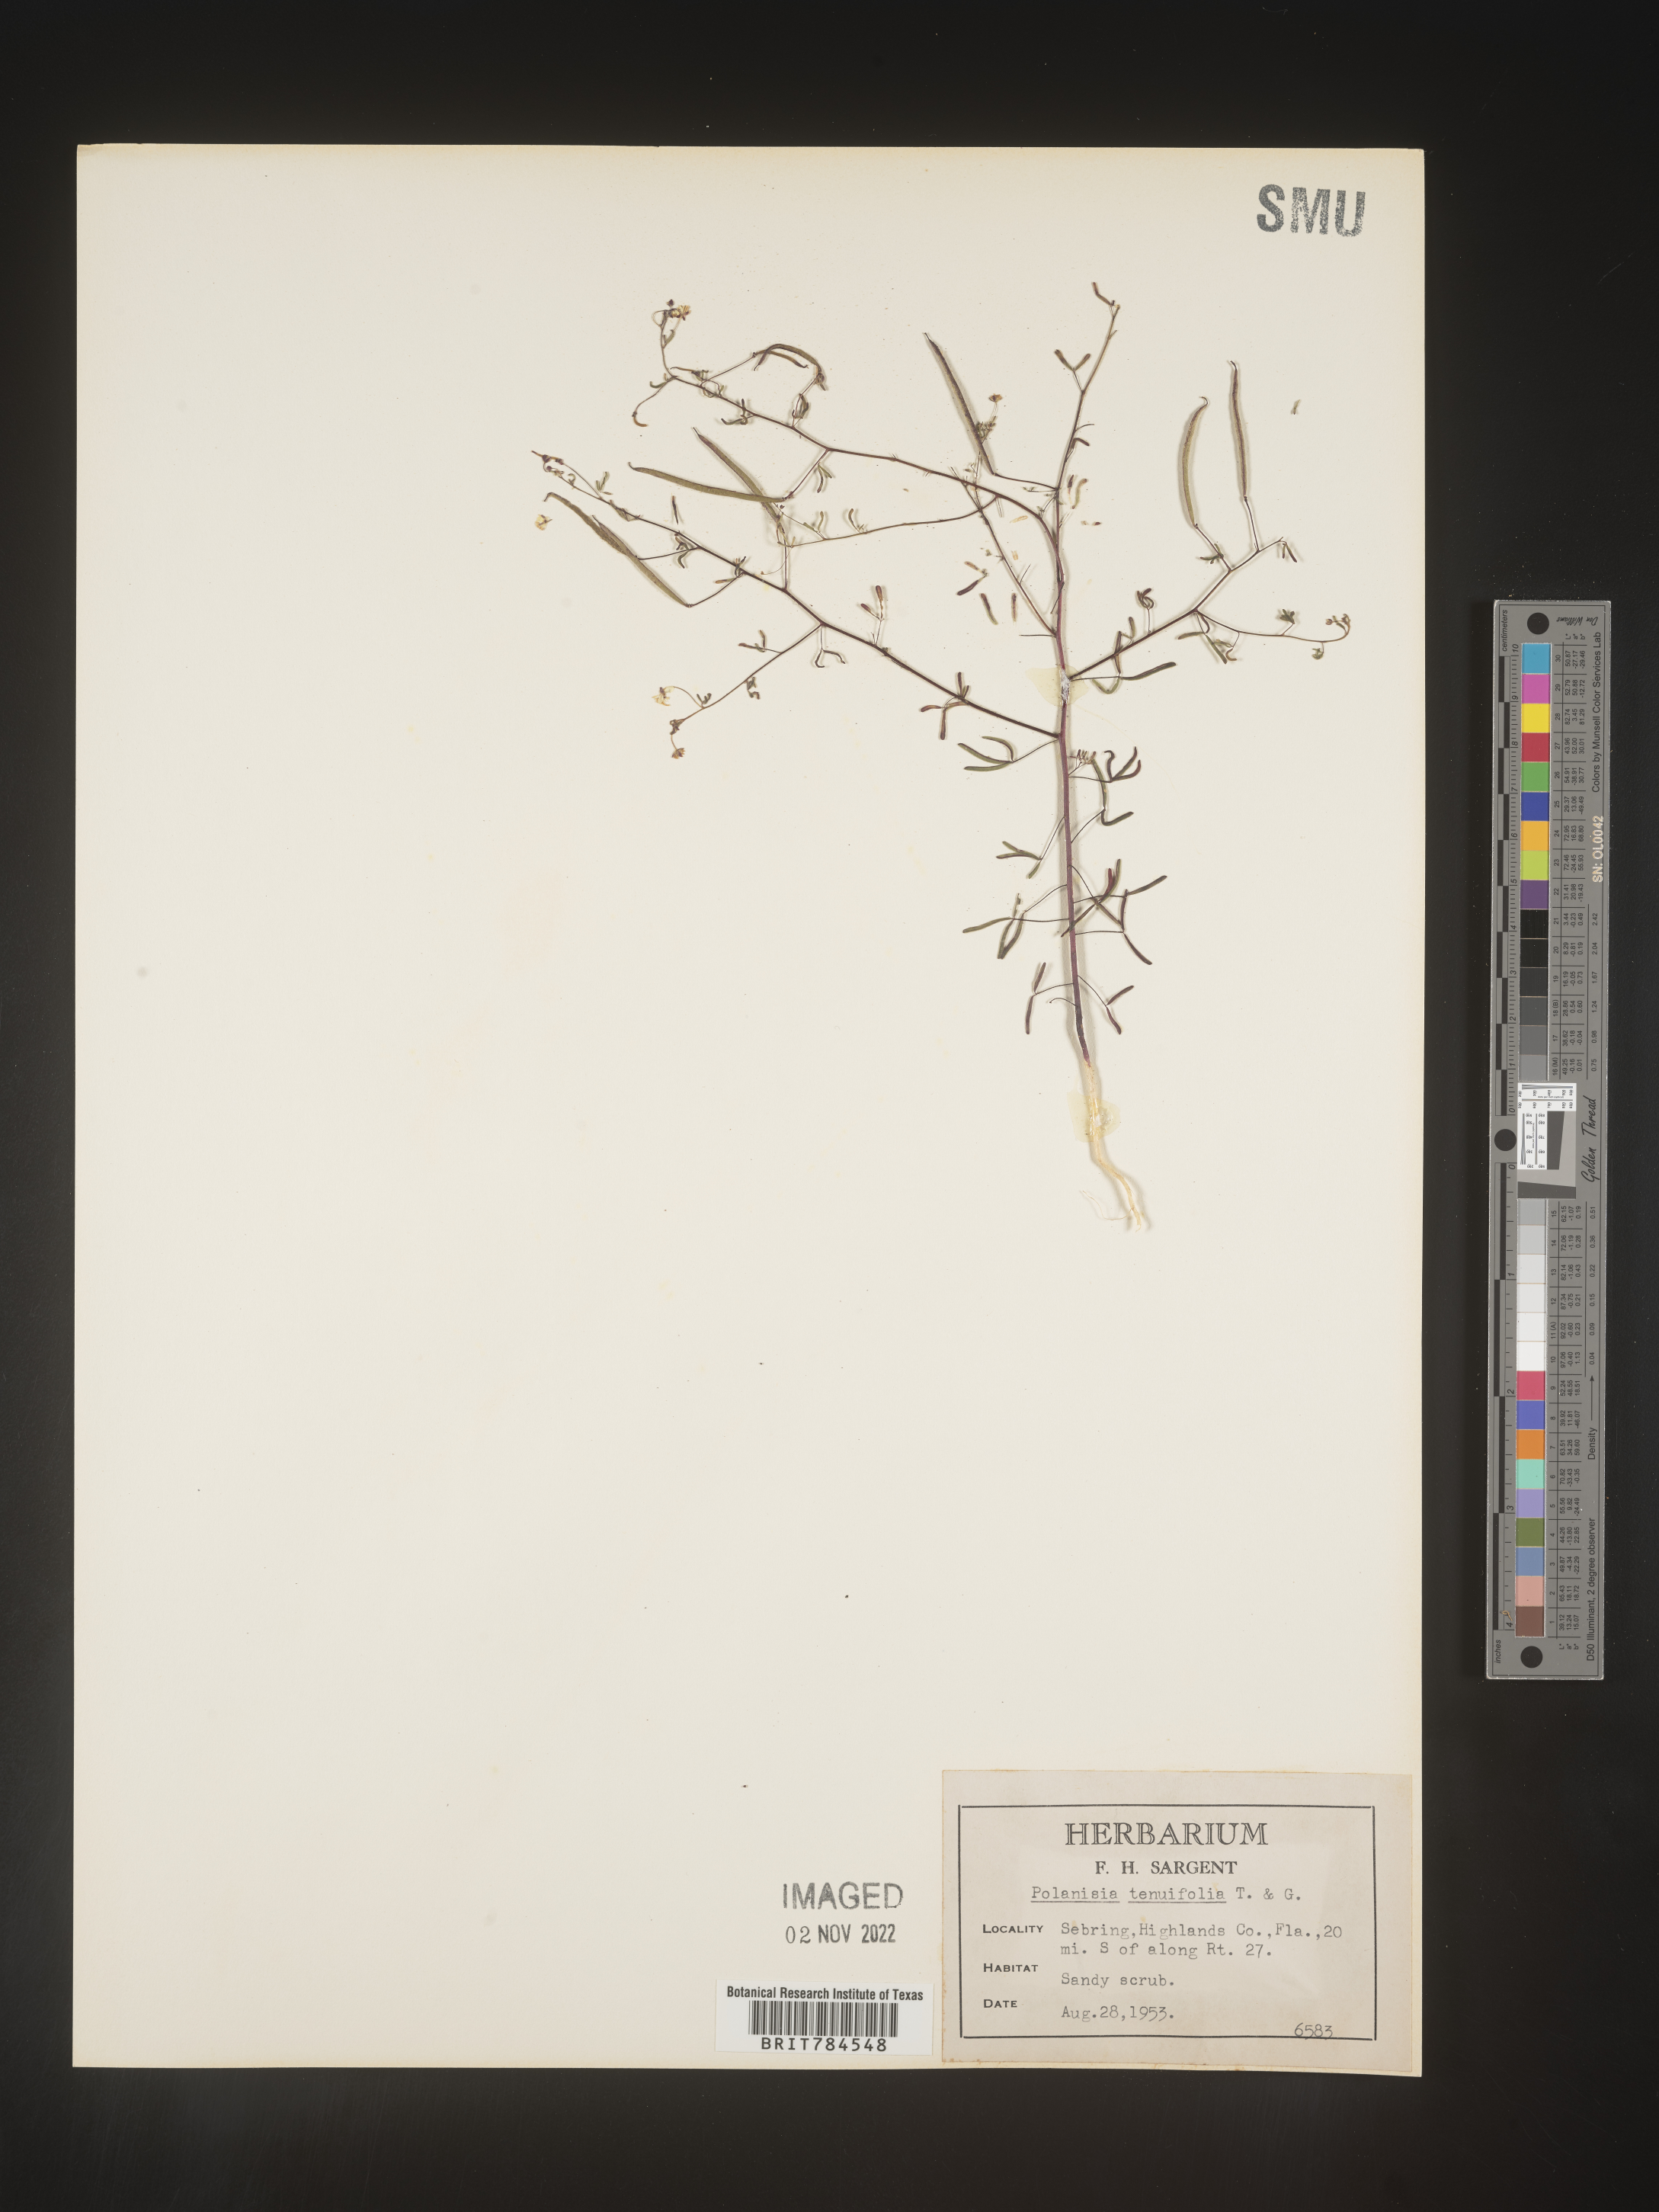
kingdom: Plantae
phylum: Tracheophyta
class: Magnoliopsida
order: Brassicales
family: Cleomaceae
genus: Polanisia
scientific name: Polanisia
